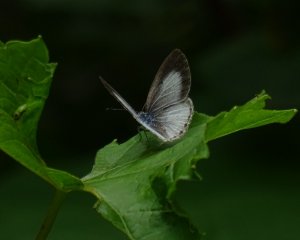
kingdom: Animalia
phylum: Arthropoda
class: Insecta
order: Lepidoptera
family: Lycaenidae
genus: Celastrina
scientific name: Celastrina serotina
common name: Cherry Gall Azure
